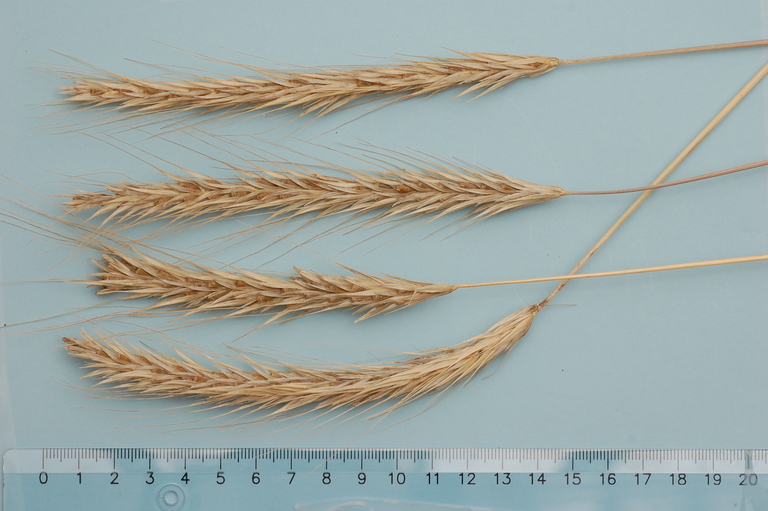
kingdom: Plantae
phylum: Tracheophyta
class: Liliopsida
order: Poales
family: Poaceae
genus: Secale
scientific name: Secale cereale
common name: Rye
